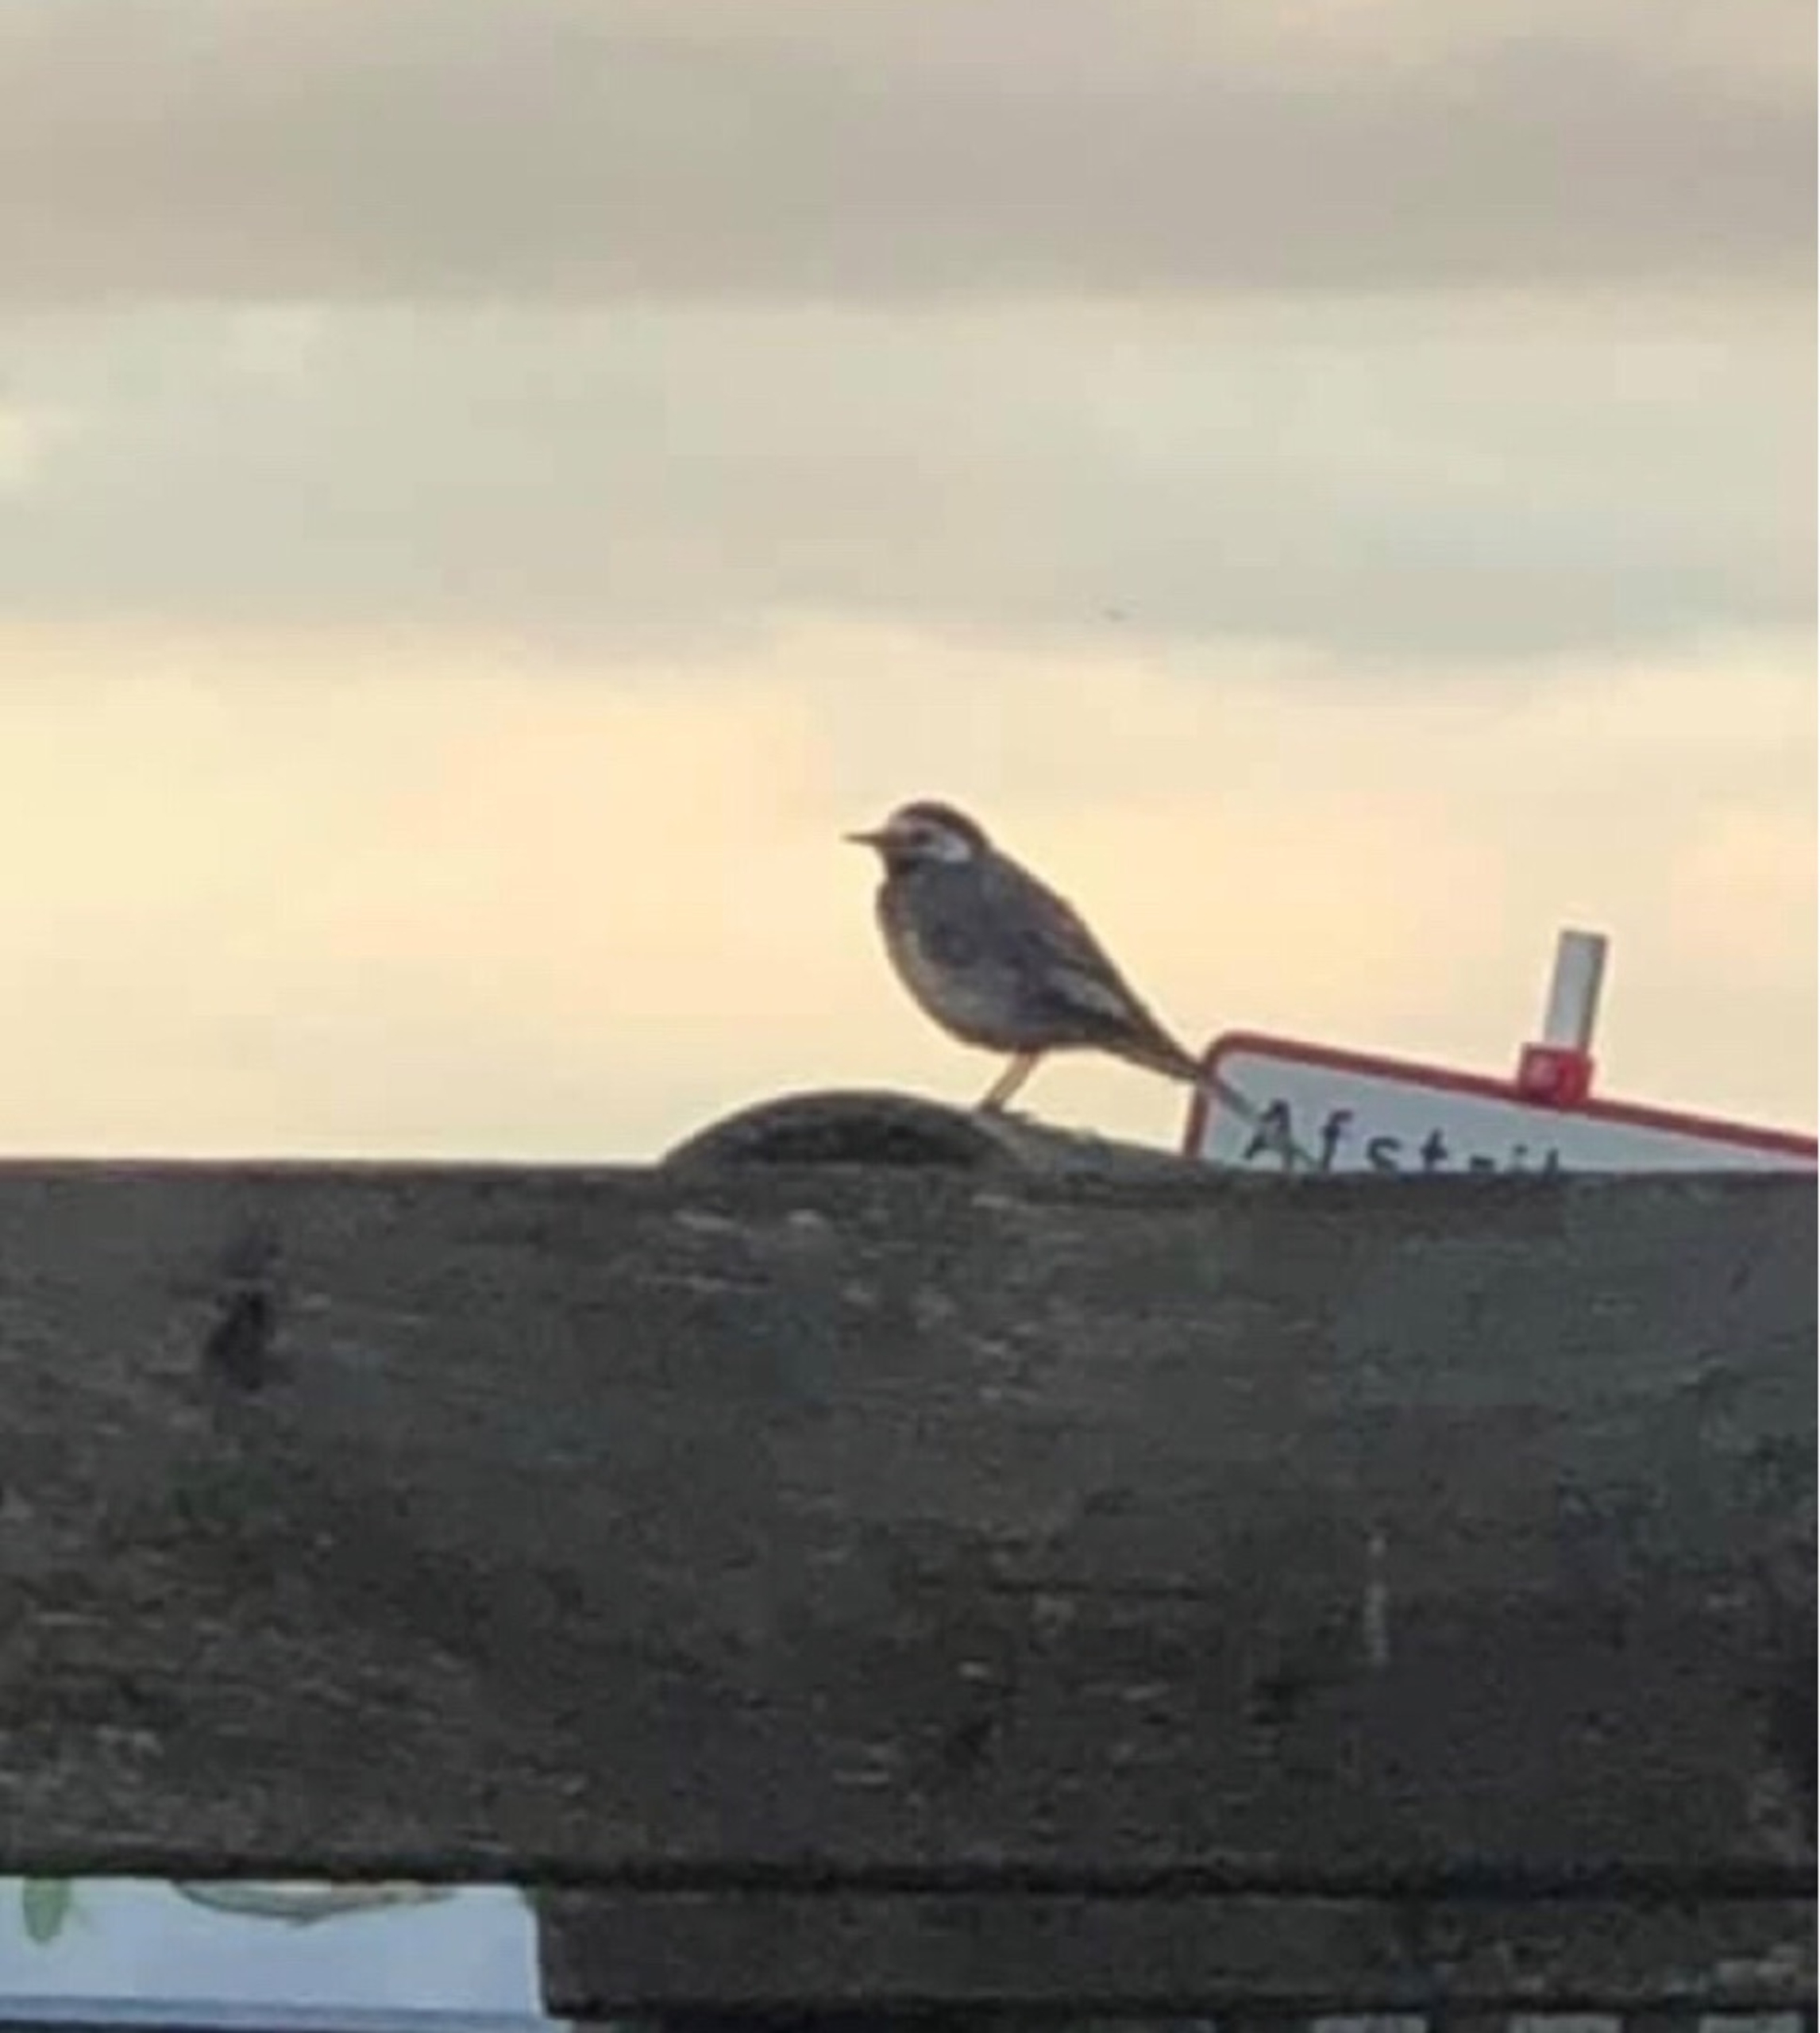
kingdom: Animalia
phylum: Chordata
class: Aves
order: Passeriformes
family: Motacillidae
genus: Motacilla
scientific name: Motacilla alba
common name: Hvid vipstjert
